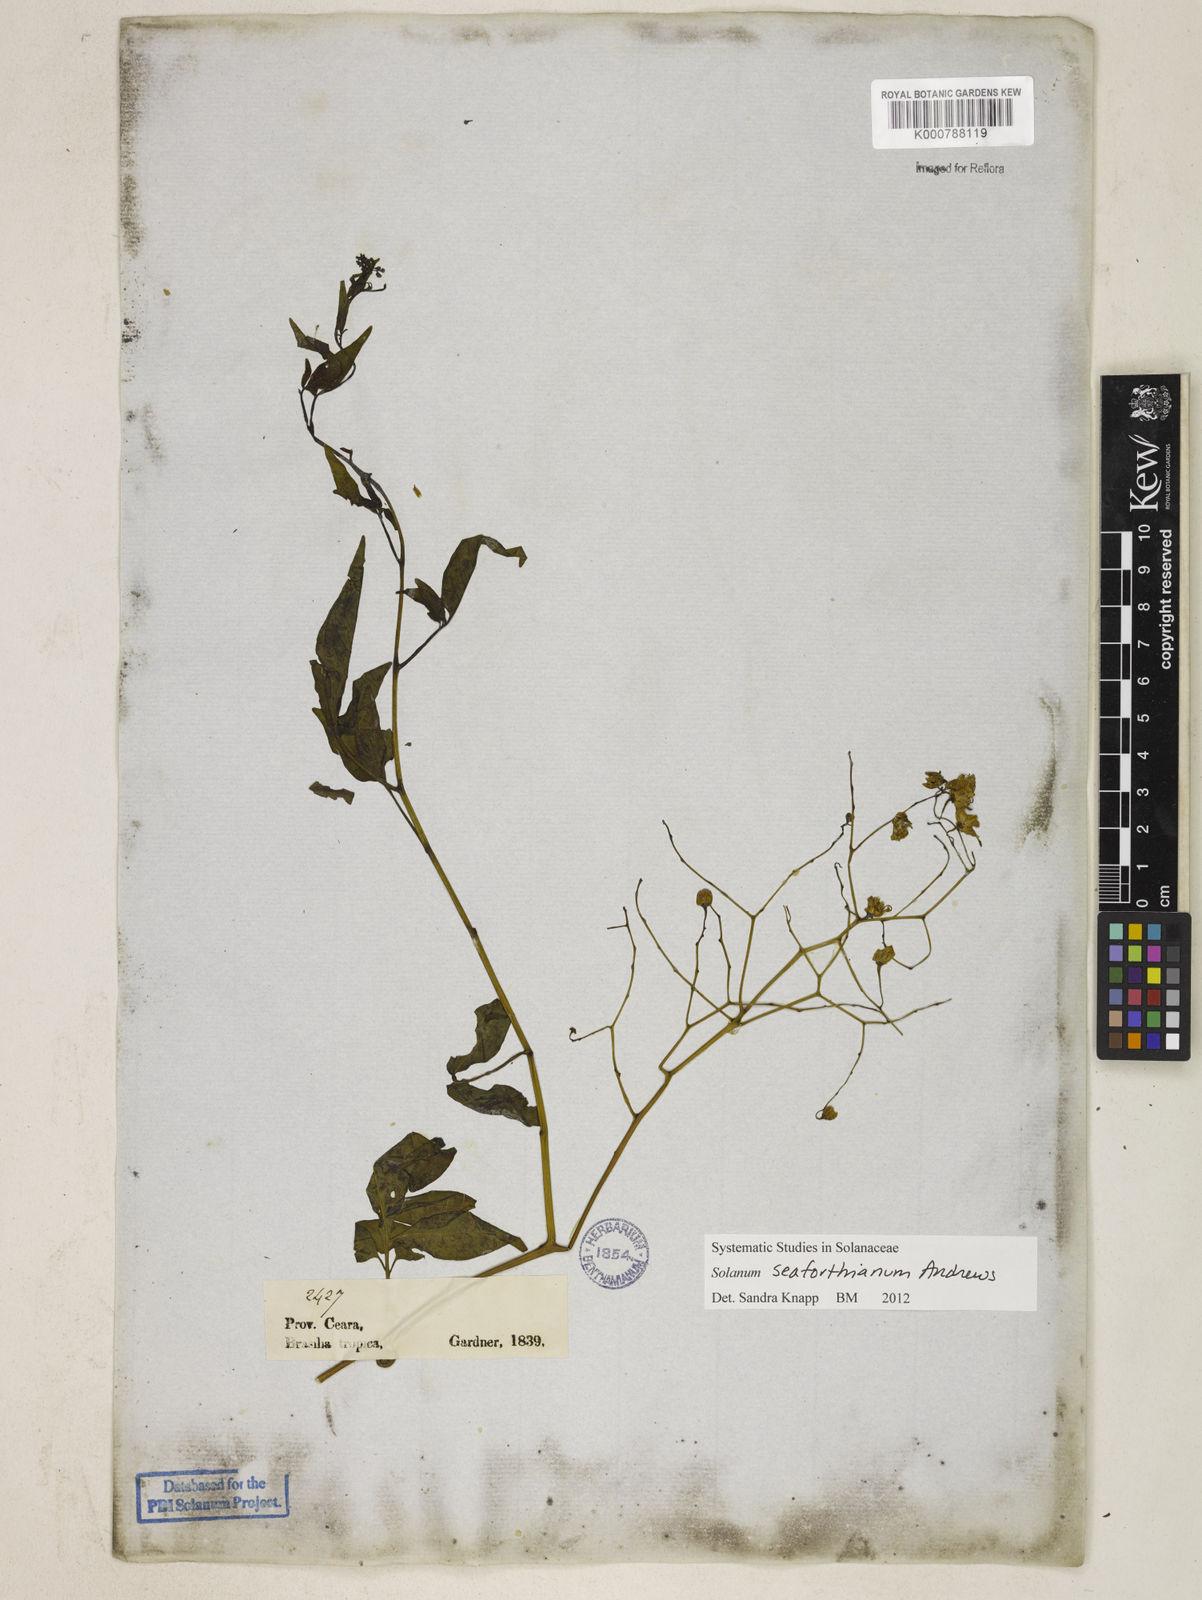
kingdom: Plantae
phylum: Tracheophyta
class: Magnoliopsida
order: Solanales
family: Solanaceae
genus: Solanum
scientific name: Solanum seaforthianum
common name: Brazilian nightshade
